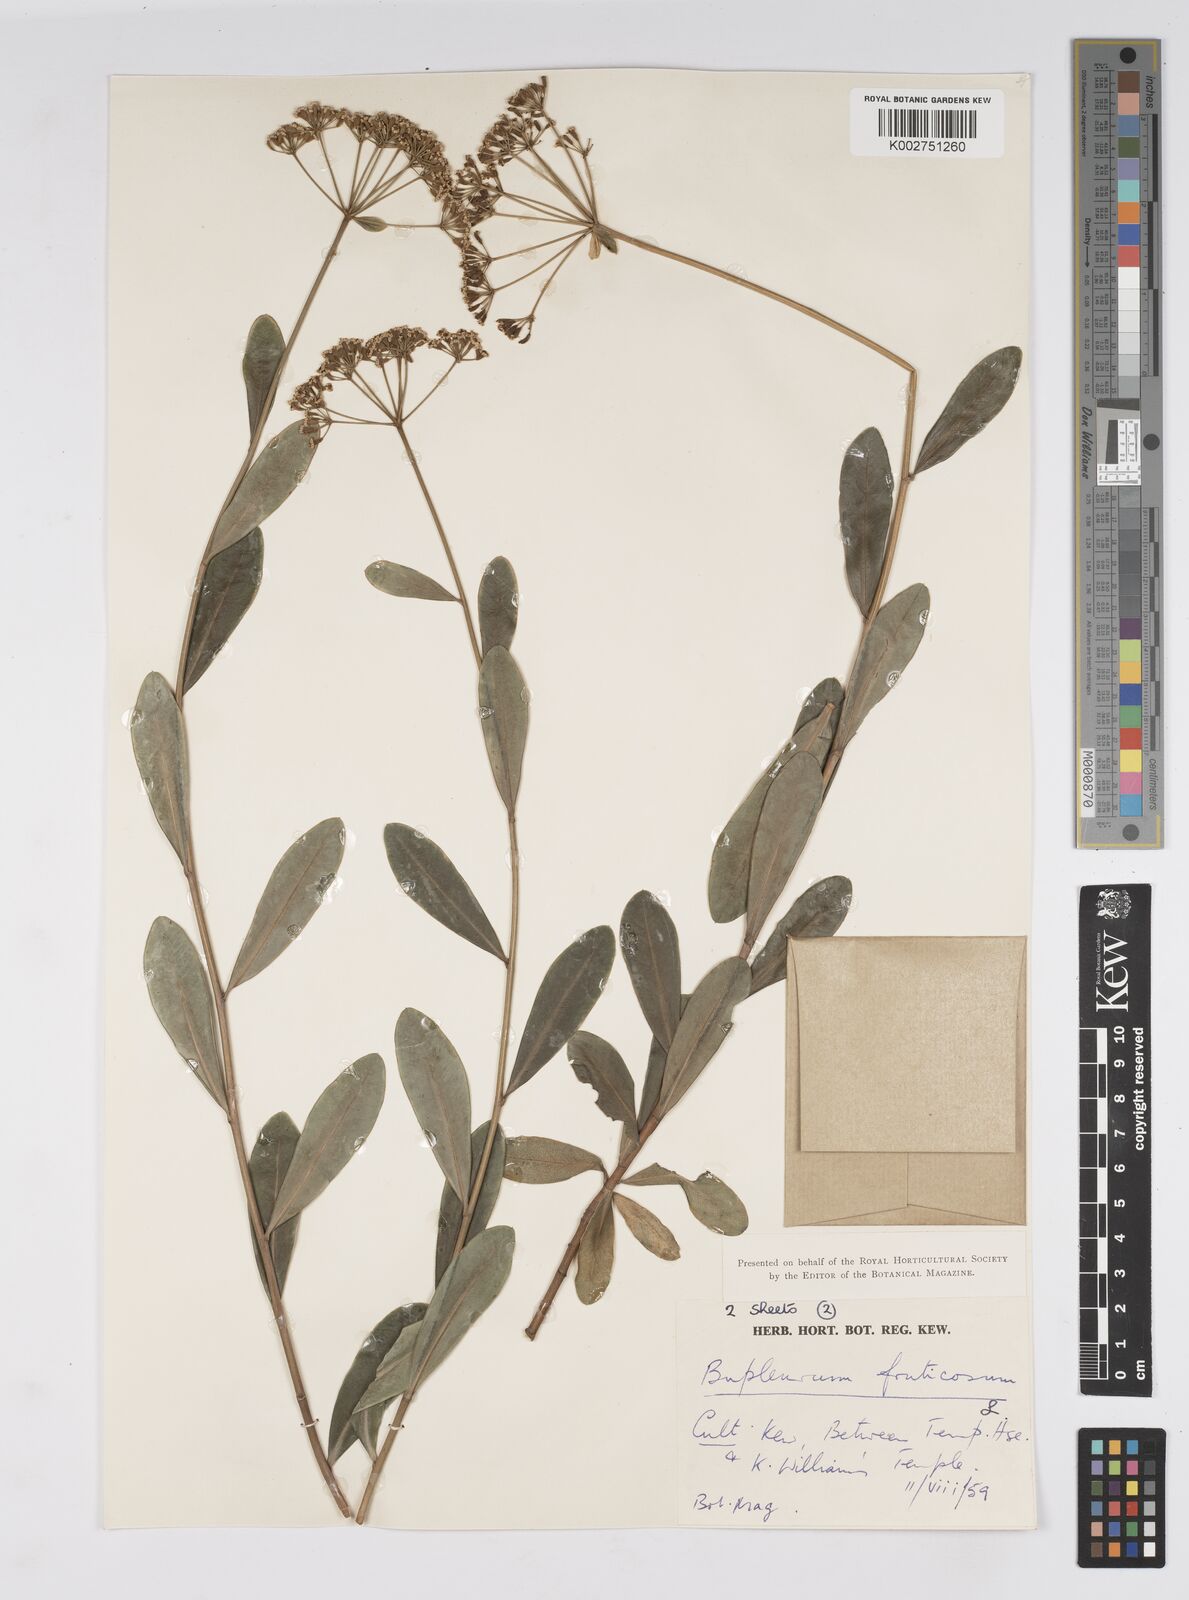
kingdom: Plantae
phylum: Tracheophyta
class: Magnoliopsida
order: Apiales
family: Apiaceae
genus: Bupleurum
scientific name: Bupleurum fruticosum
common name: Shrubby hare's-ear
